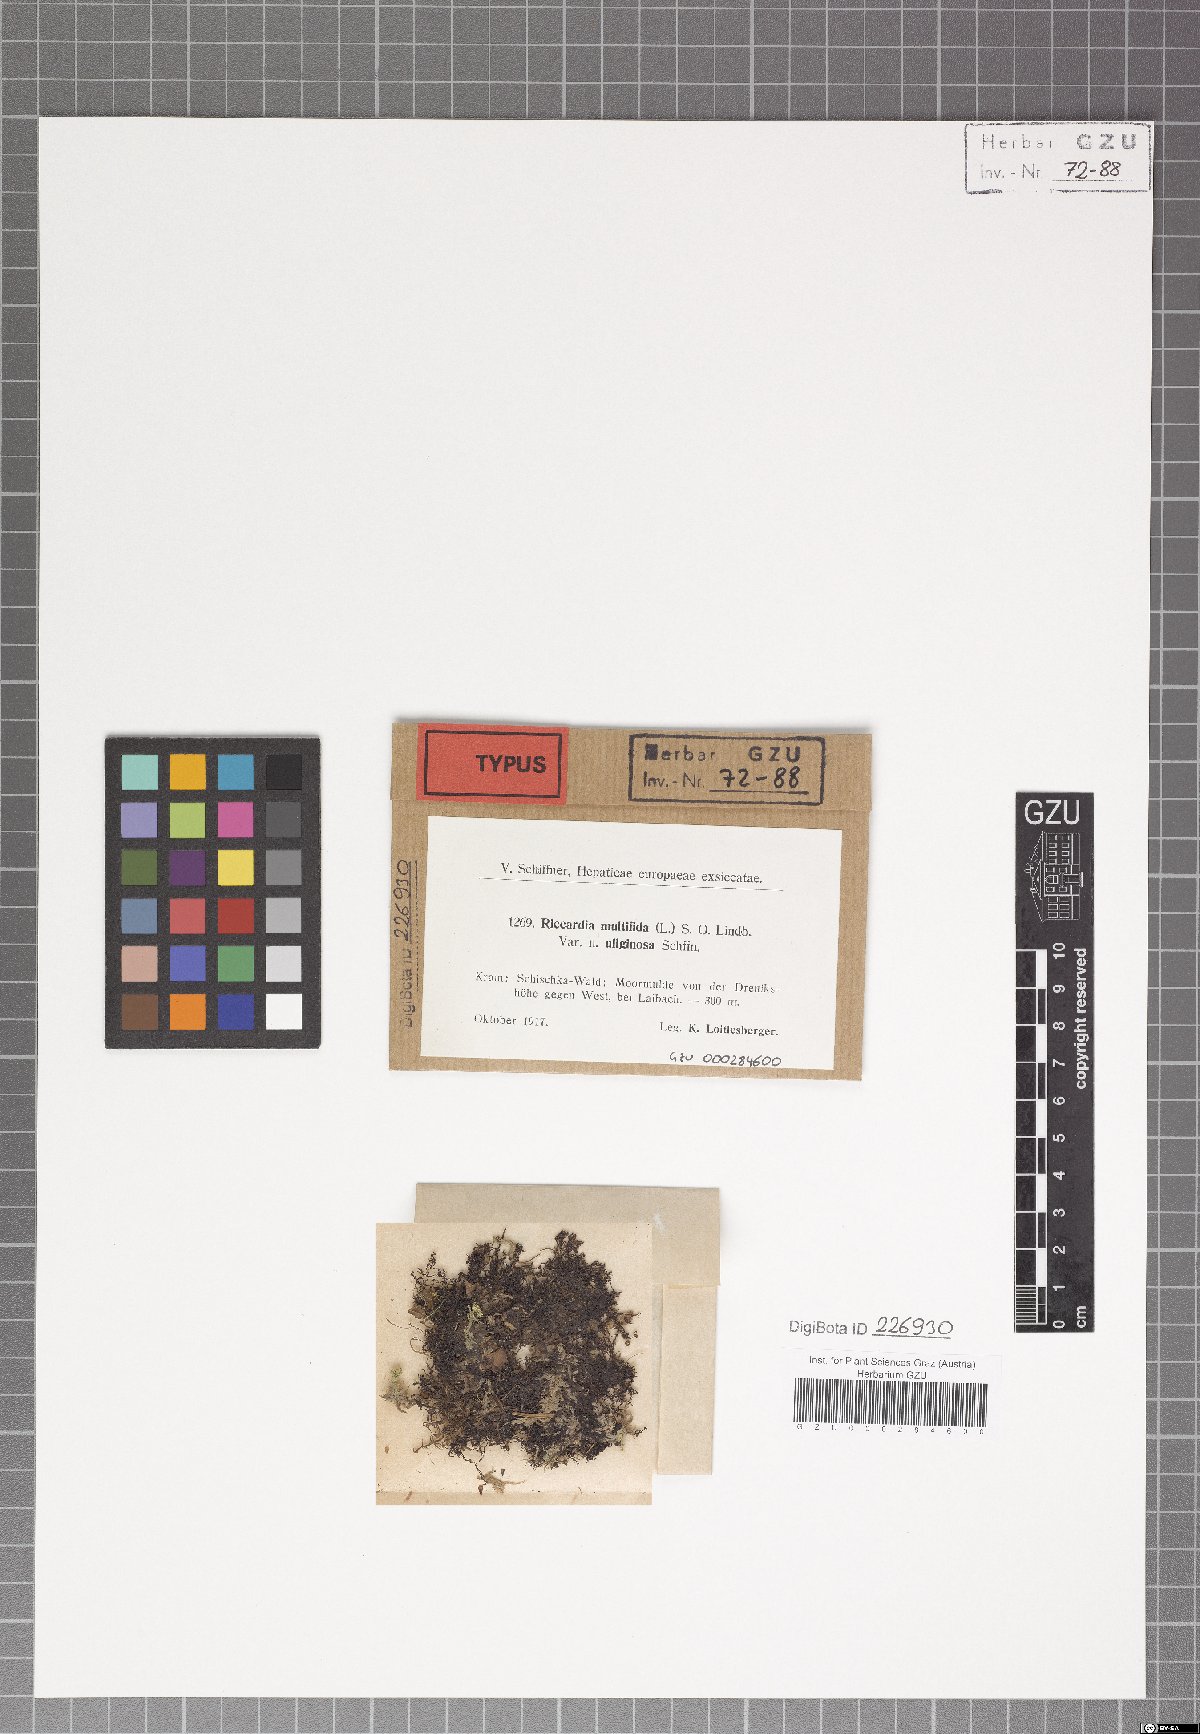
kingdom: Plantae
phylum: Marchantiophyta
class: Jungermanniopsida
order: Metzgeriales
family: Aneuraceae
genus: Riccardia
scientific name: Riccardia multifida
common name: Delicate germanderwort
